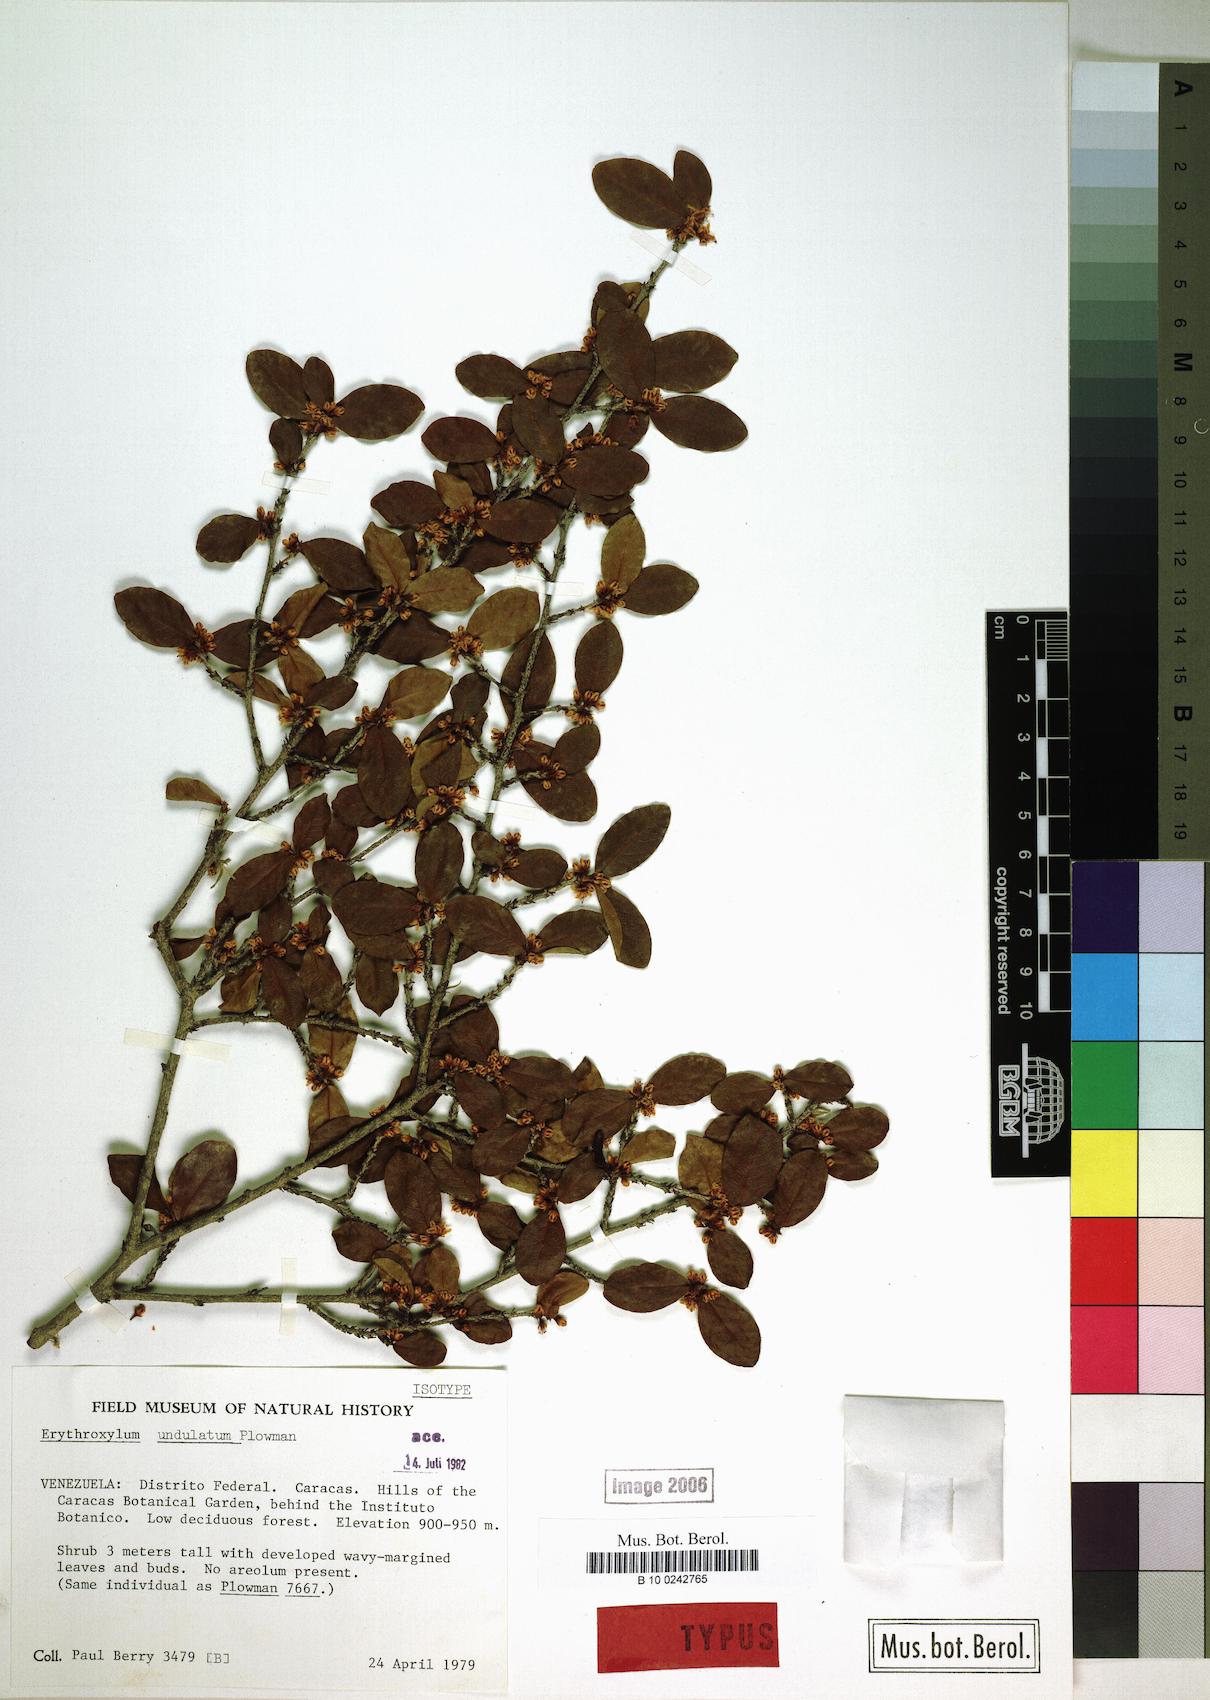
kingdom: Plantae
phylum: Tracheophyta
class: Magnoliopsida
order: Malpighiales
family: Erythroxylaceae
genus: Erythroxylum
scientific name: Erythroxylum undulatum
